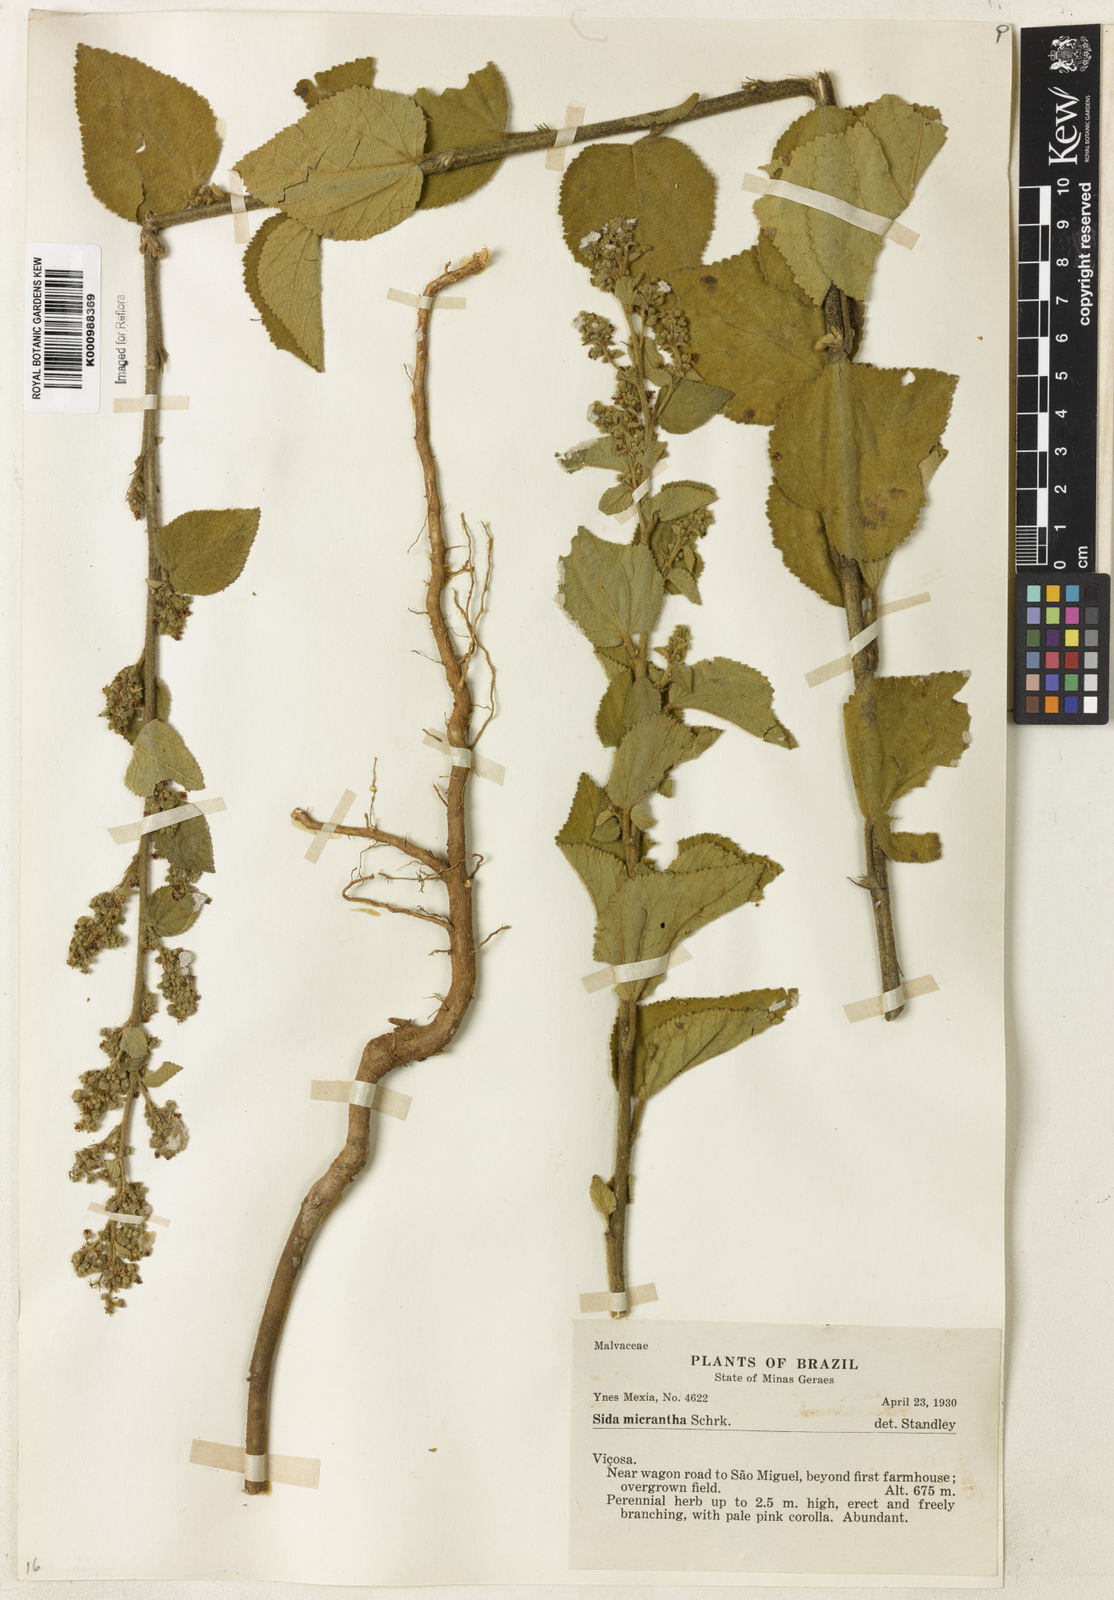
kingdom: Plantae
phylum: Tracheophyta
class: Magnoliopsida
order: Malvales
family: Malvaceae
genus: Sidastrum
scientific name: Sidastrum micranthum
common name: Dainty sandmallow
